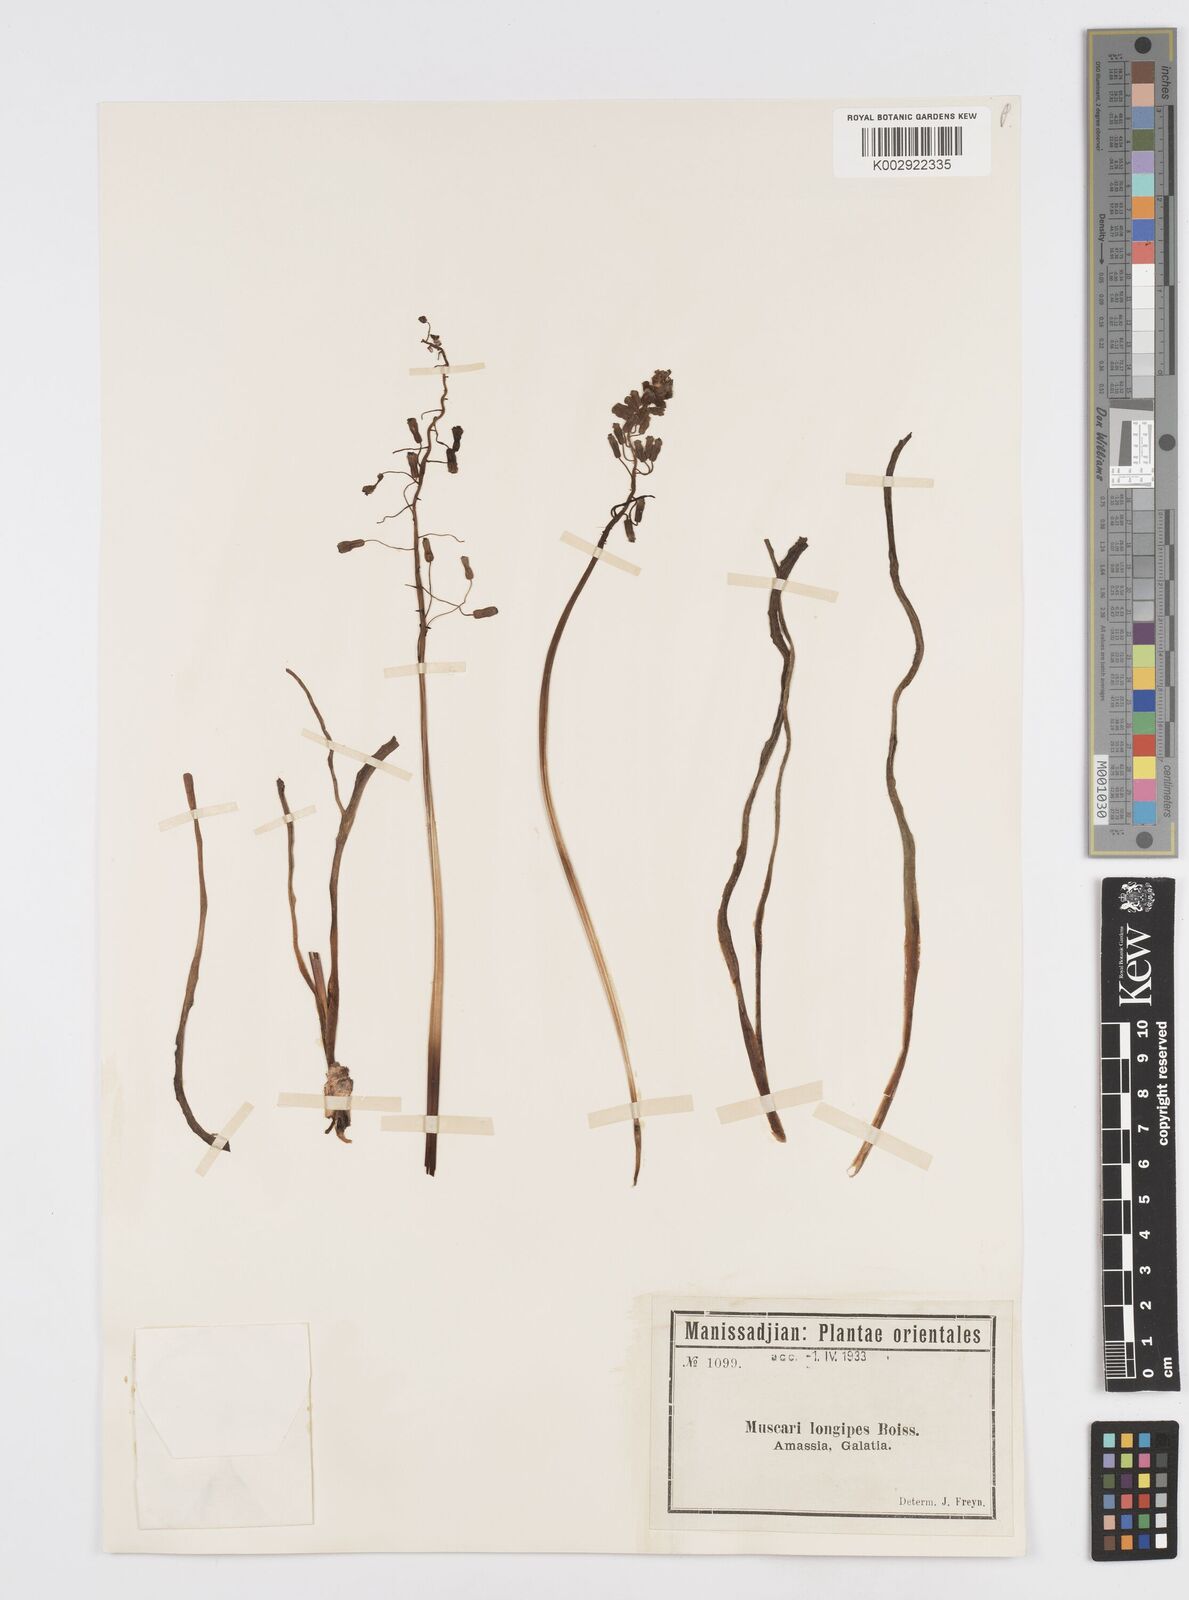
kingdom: Plantae
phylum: Tracheophyta
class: Liliopsida
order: Asparagales
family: Asparagaceae
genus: Muscari
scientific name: Muscari longipes
